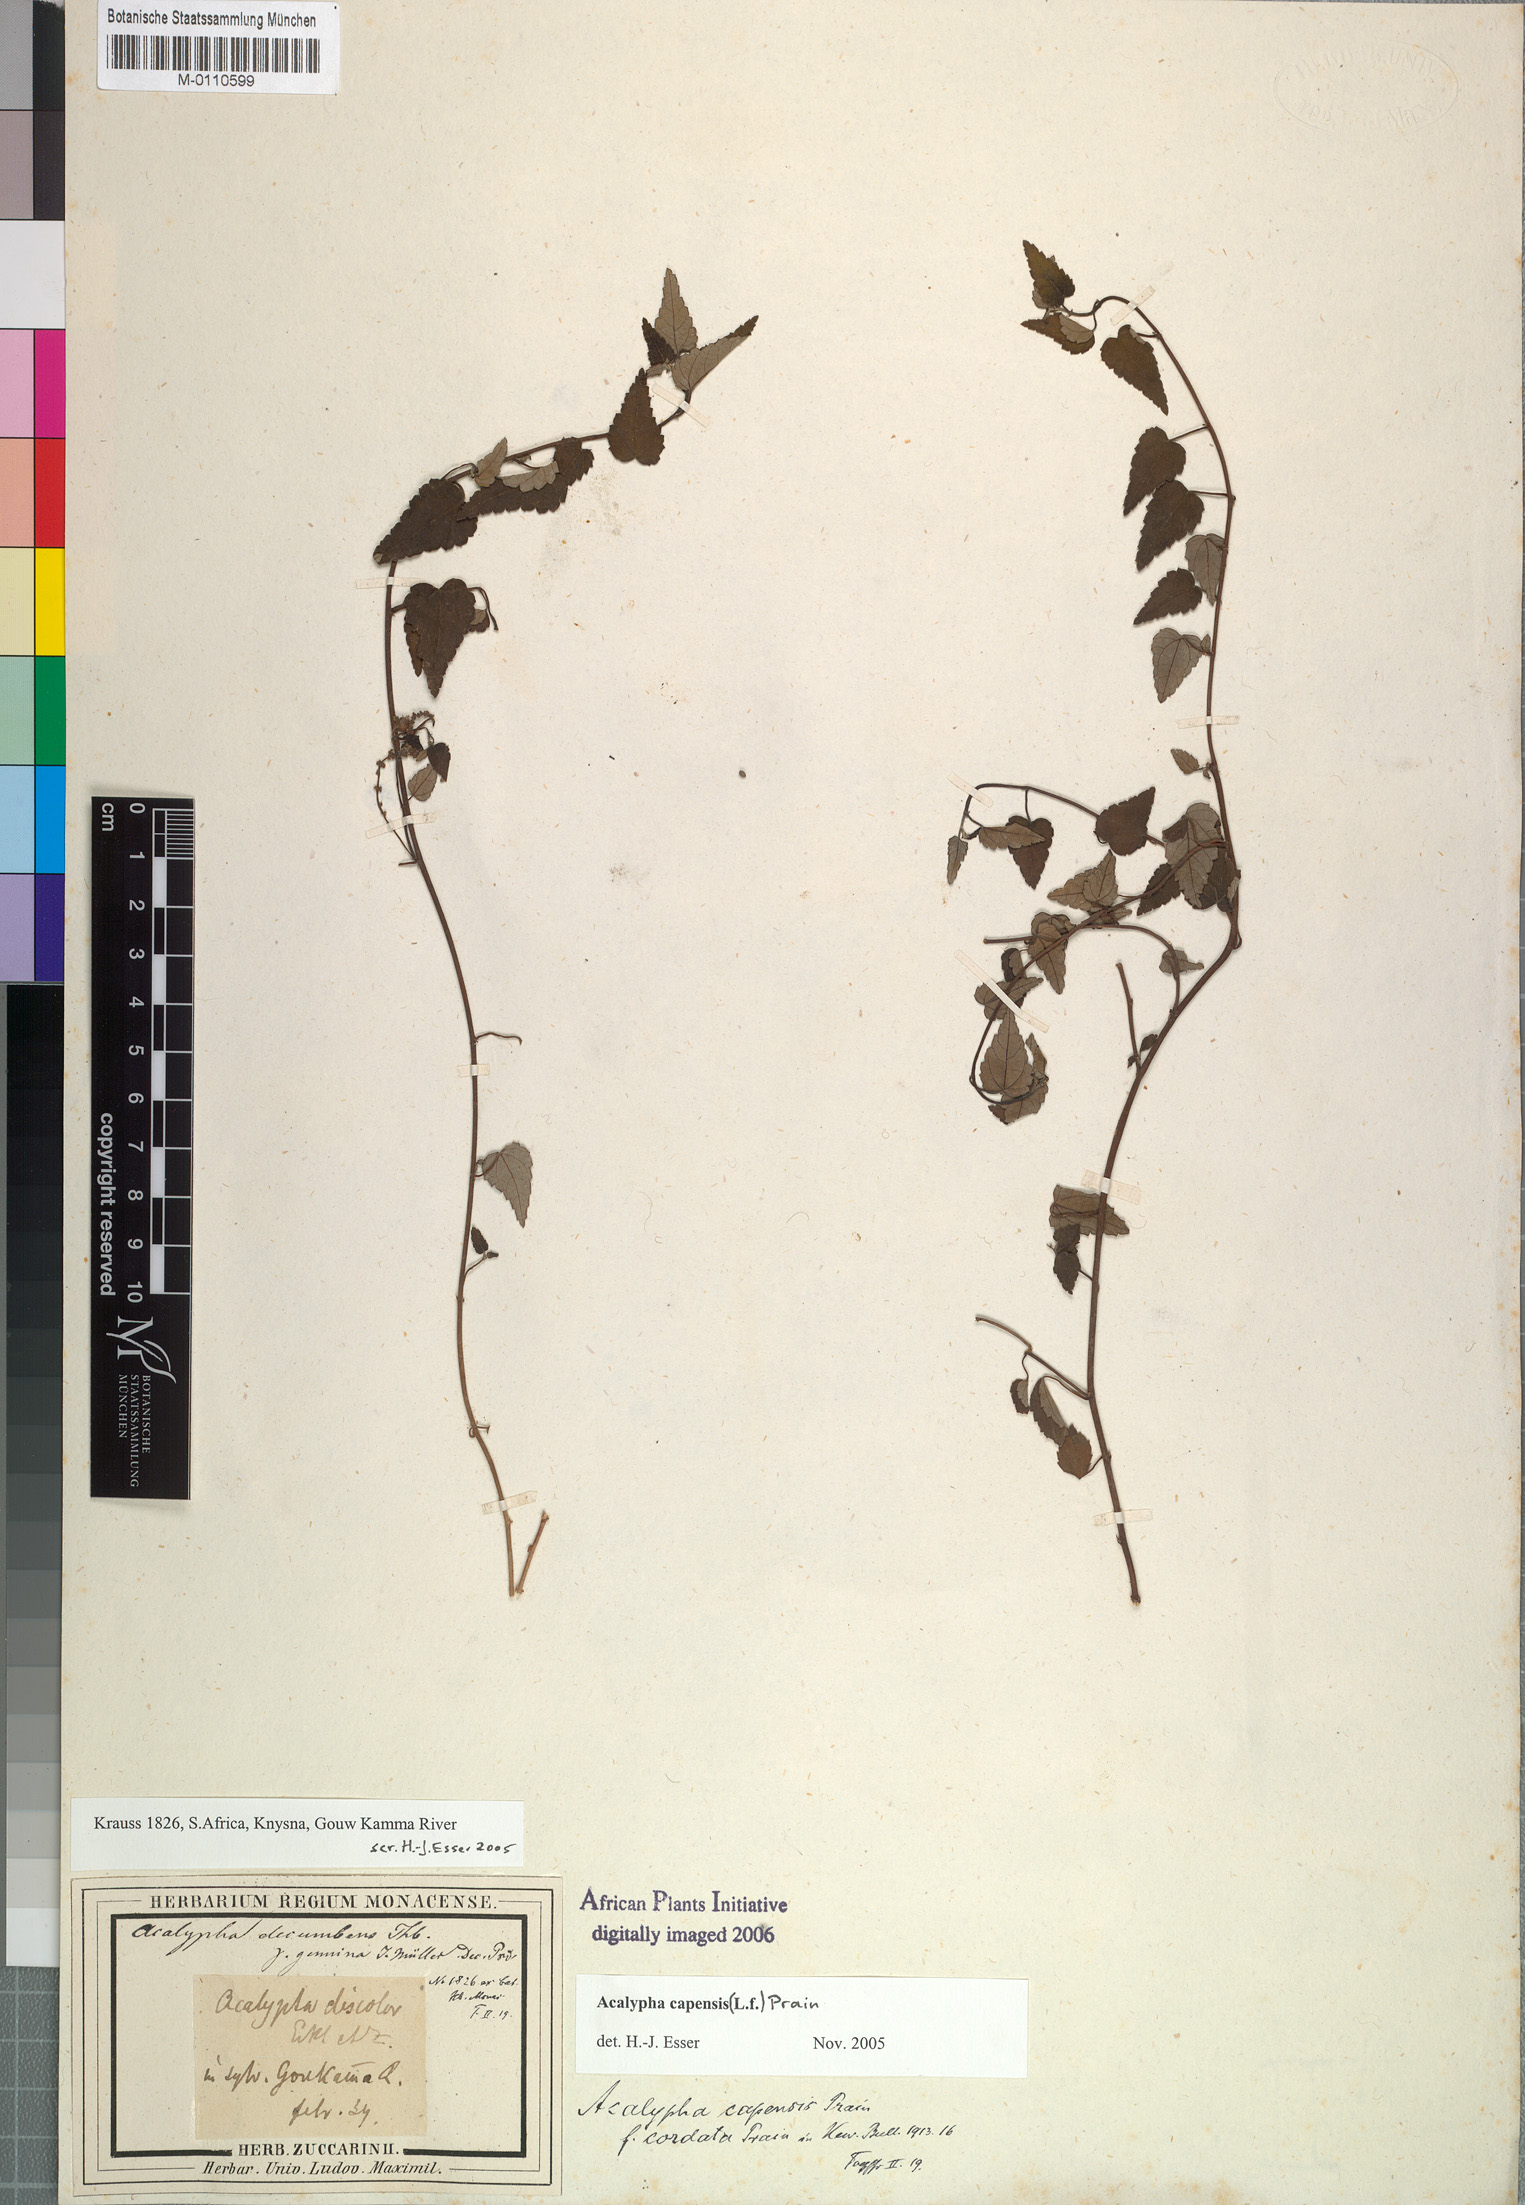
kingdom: Plantae
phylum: Tracheophyta
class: Magnoliopsida
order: Rosales
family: Urticaceae
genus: Didymodoxa
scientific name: Didymodoxa capensis
